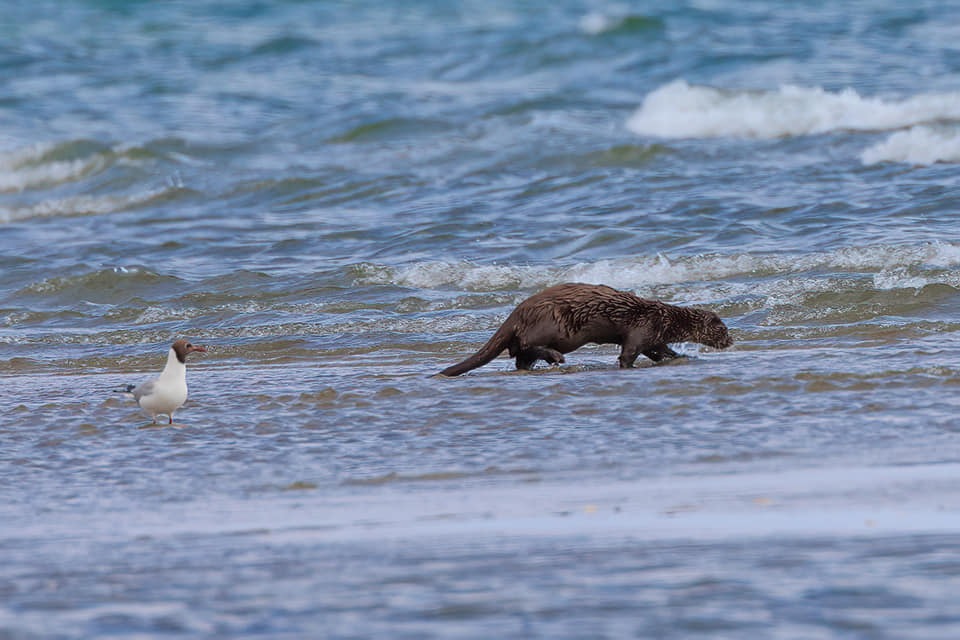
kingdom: Animalia
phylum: Chordata
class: Mammalia
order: Carnivora
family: Mustelidae
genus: Lutra
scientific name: Lutra lutra
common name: Odder
